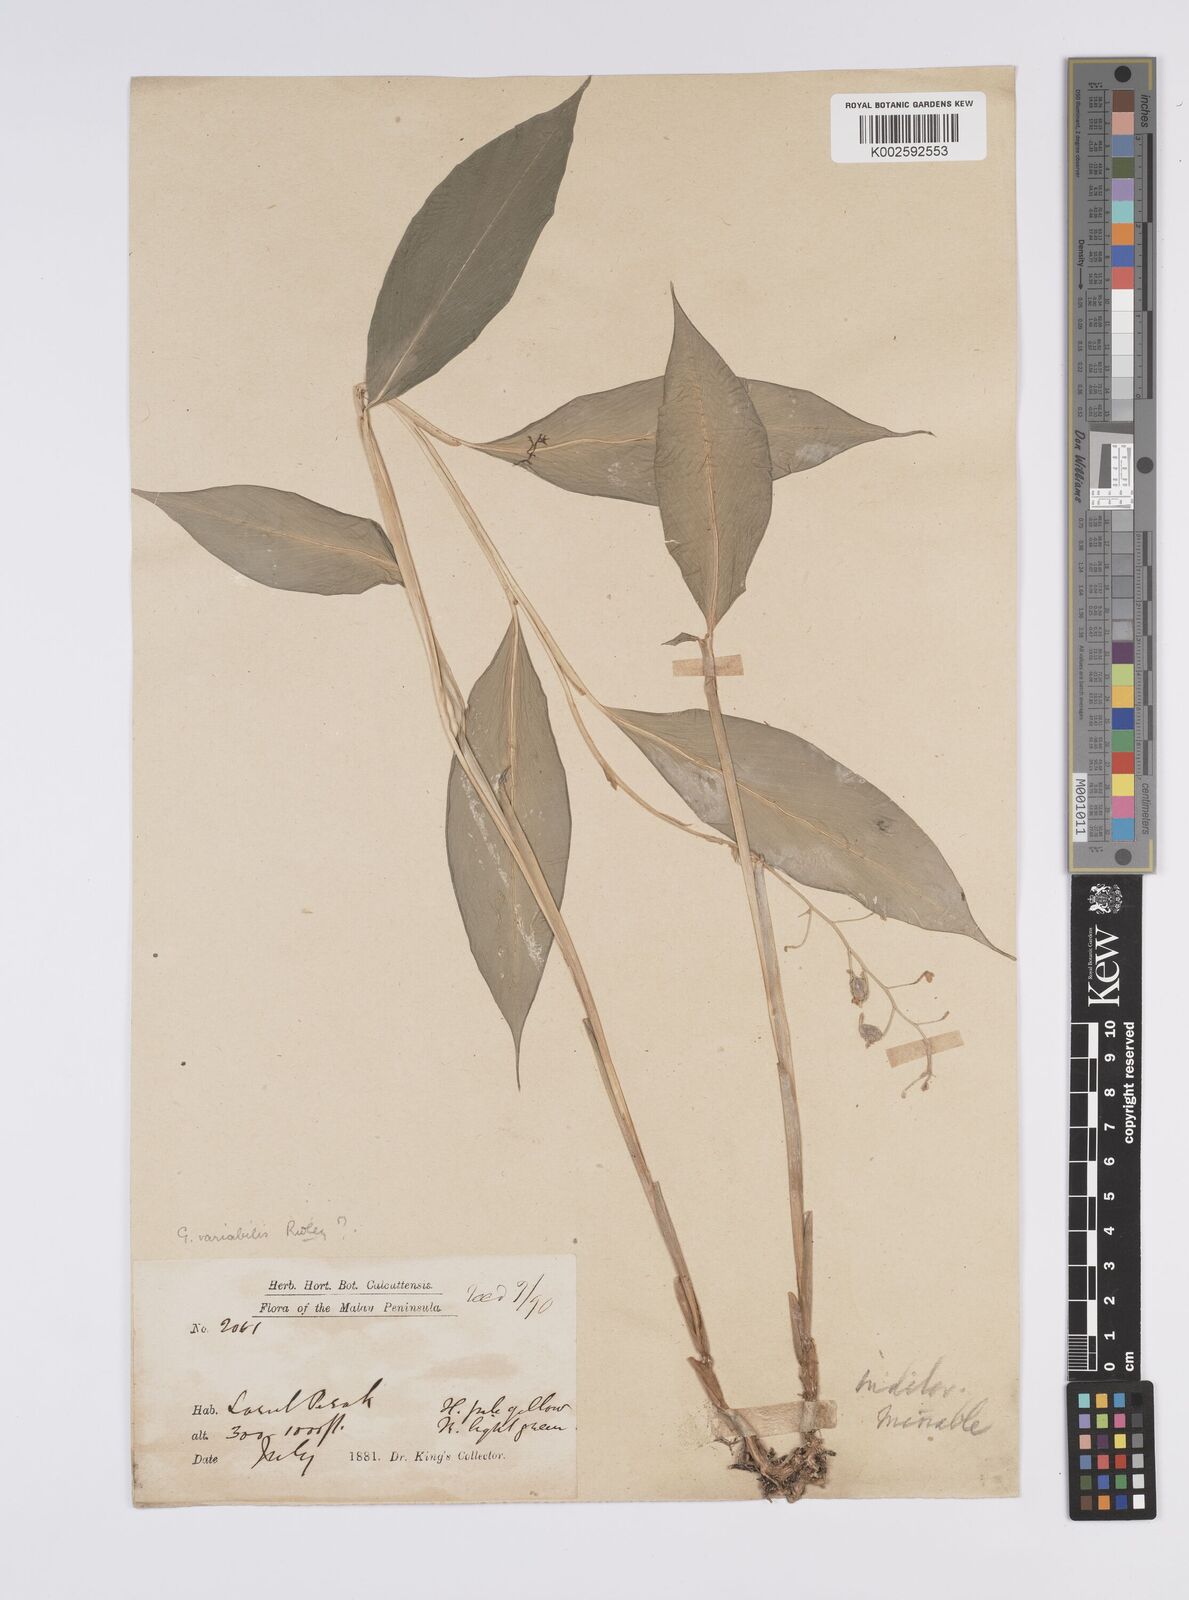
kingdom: Plantae
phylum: Tracheophyta
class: Liliopsida
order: Zingiberales
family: Zingiberaceae
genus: Globba
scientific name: Globba variabilis
